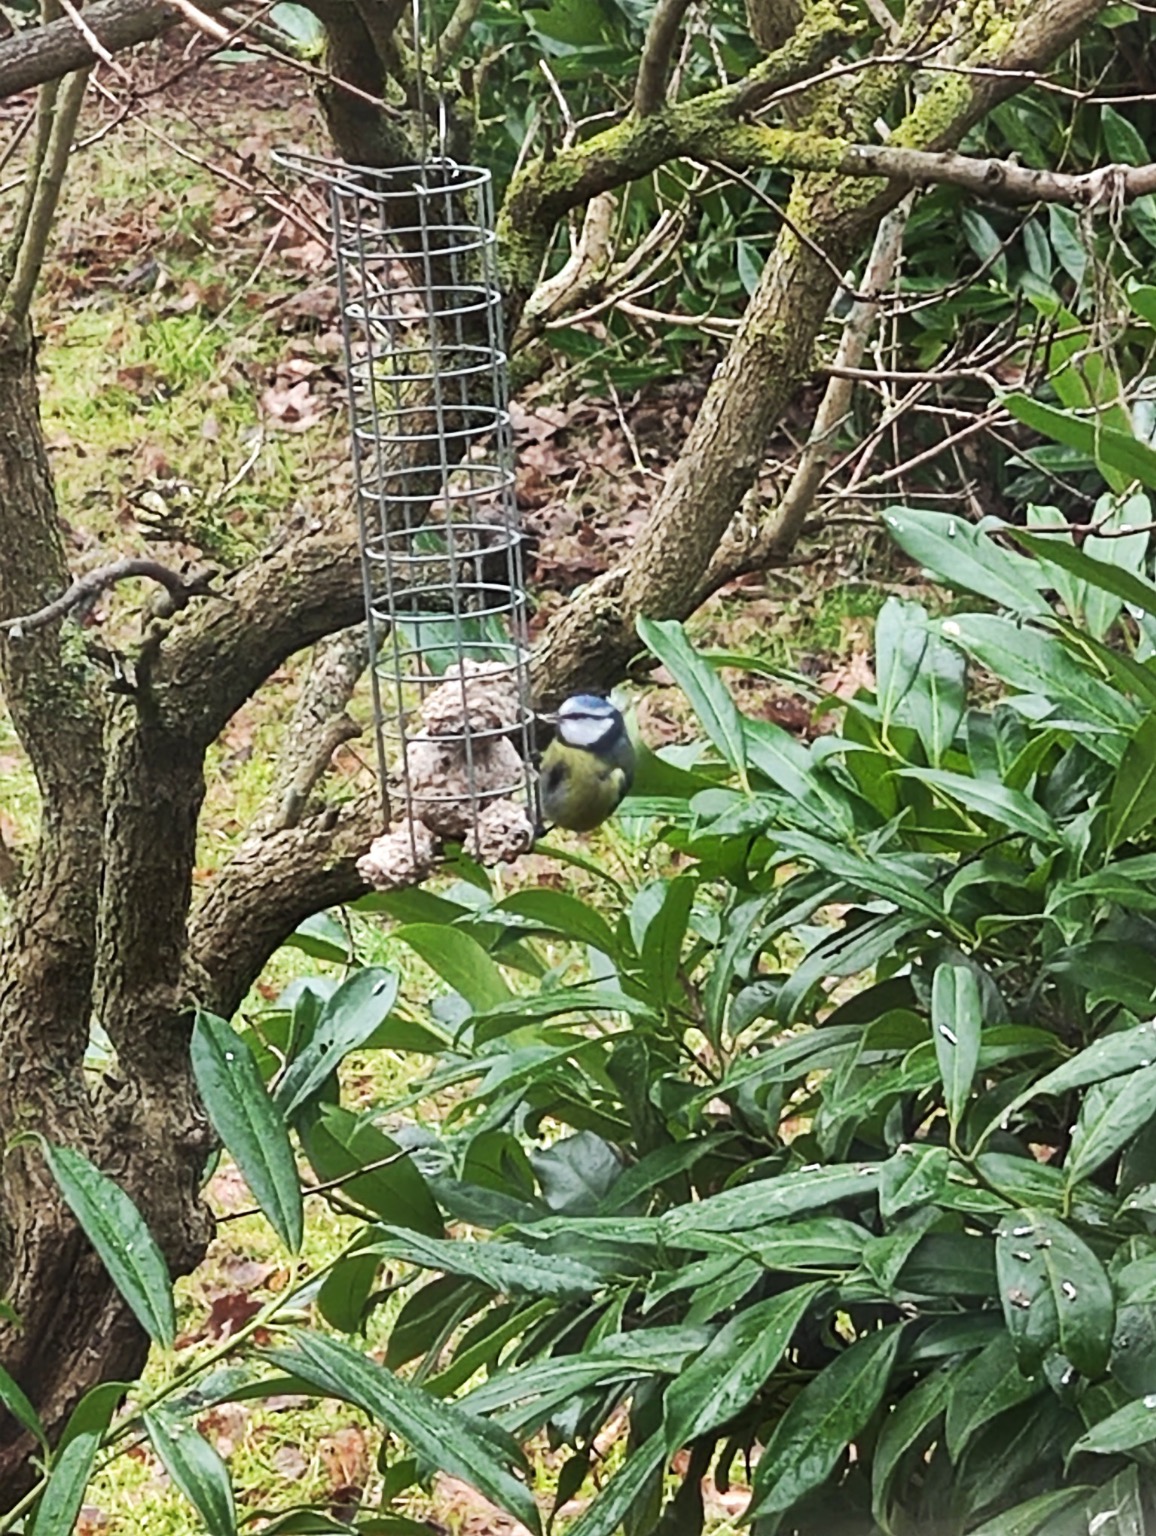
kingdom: Animalia
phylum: Chordata
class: Aves
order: Passeriformes
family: Paridae
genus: Cyanistes
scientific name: Cyanistes caeruleus
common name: Blåmejse
